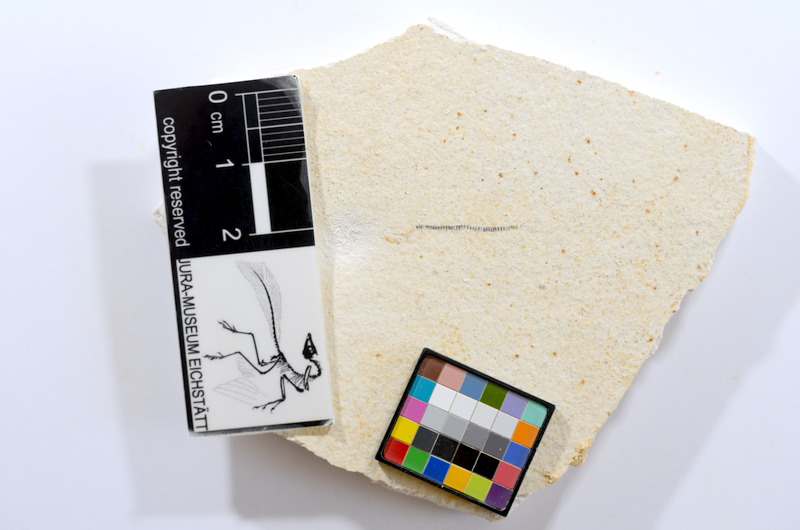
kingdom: Animalia
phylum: Chordata
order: Salmoniformes
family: Orthogonikleithridae
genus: Orthogonikleithrus
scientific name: Orthogonikleithrus hoelli
